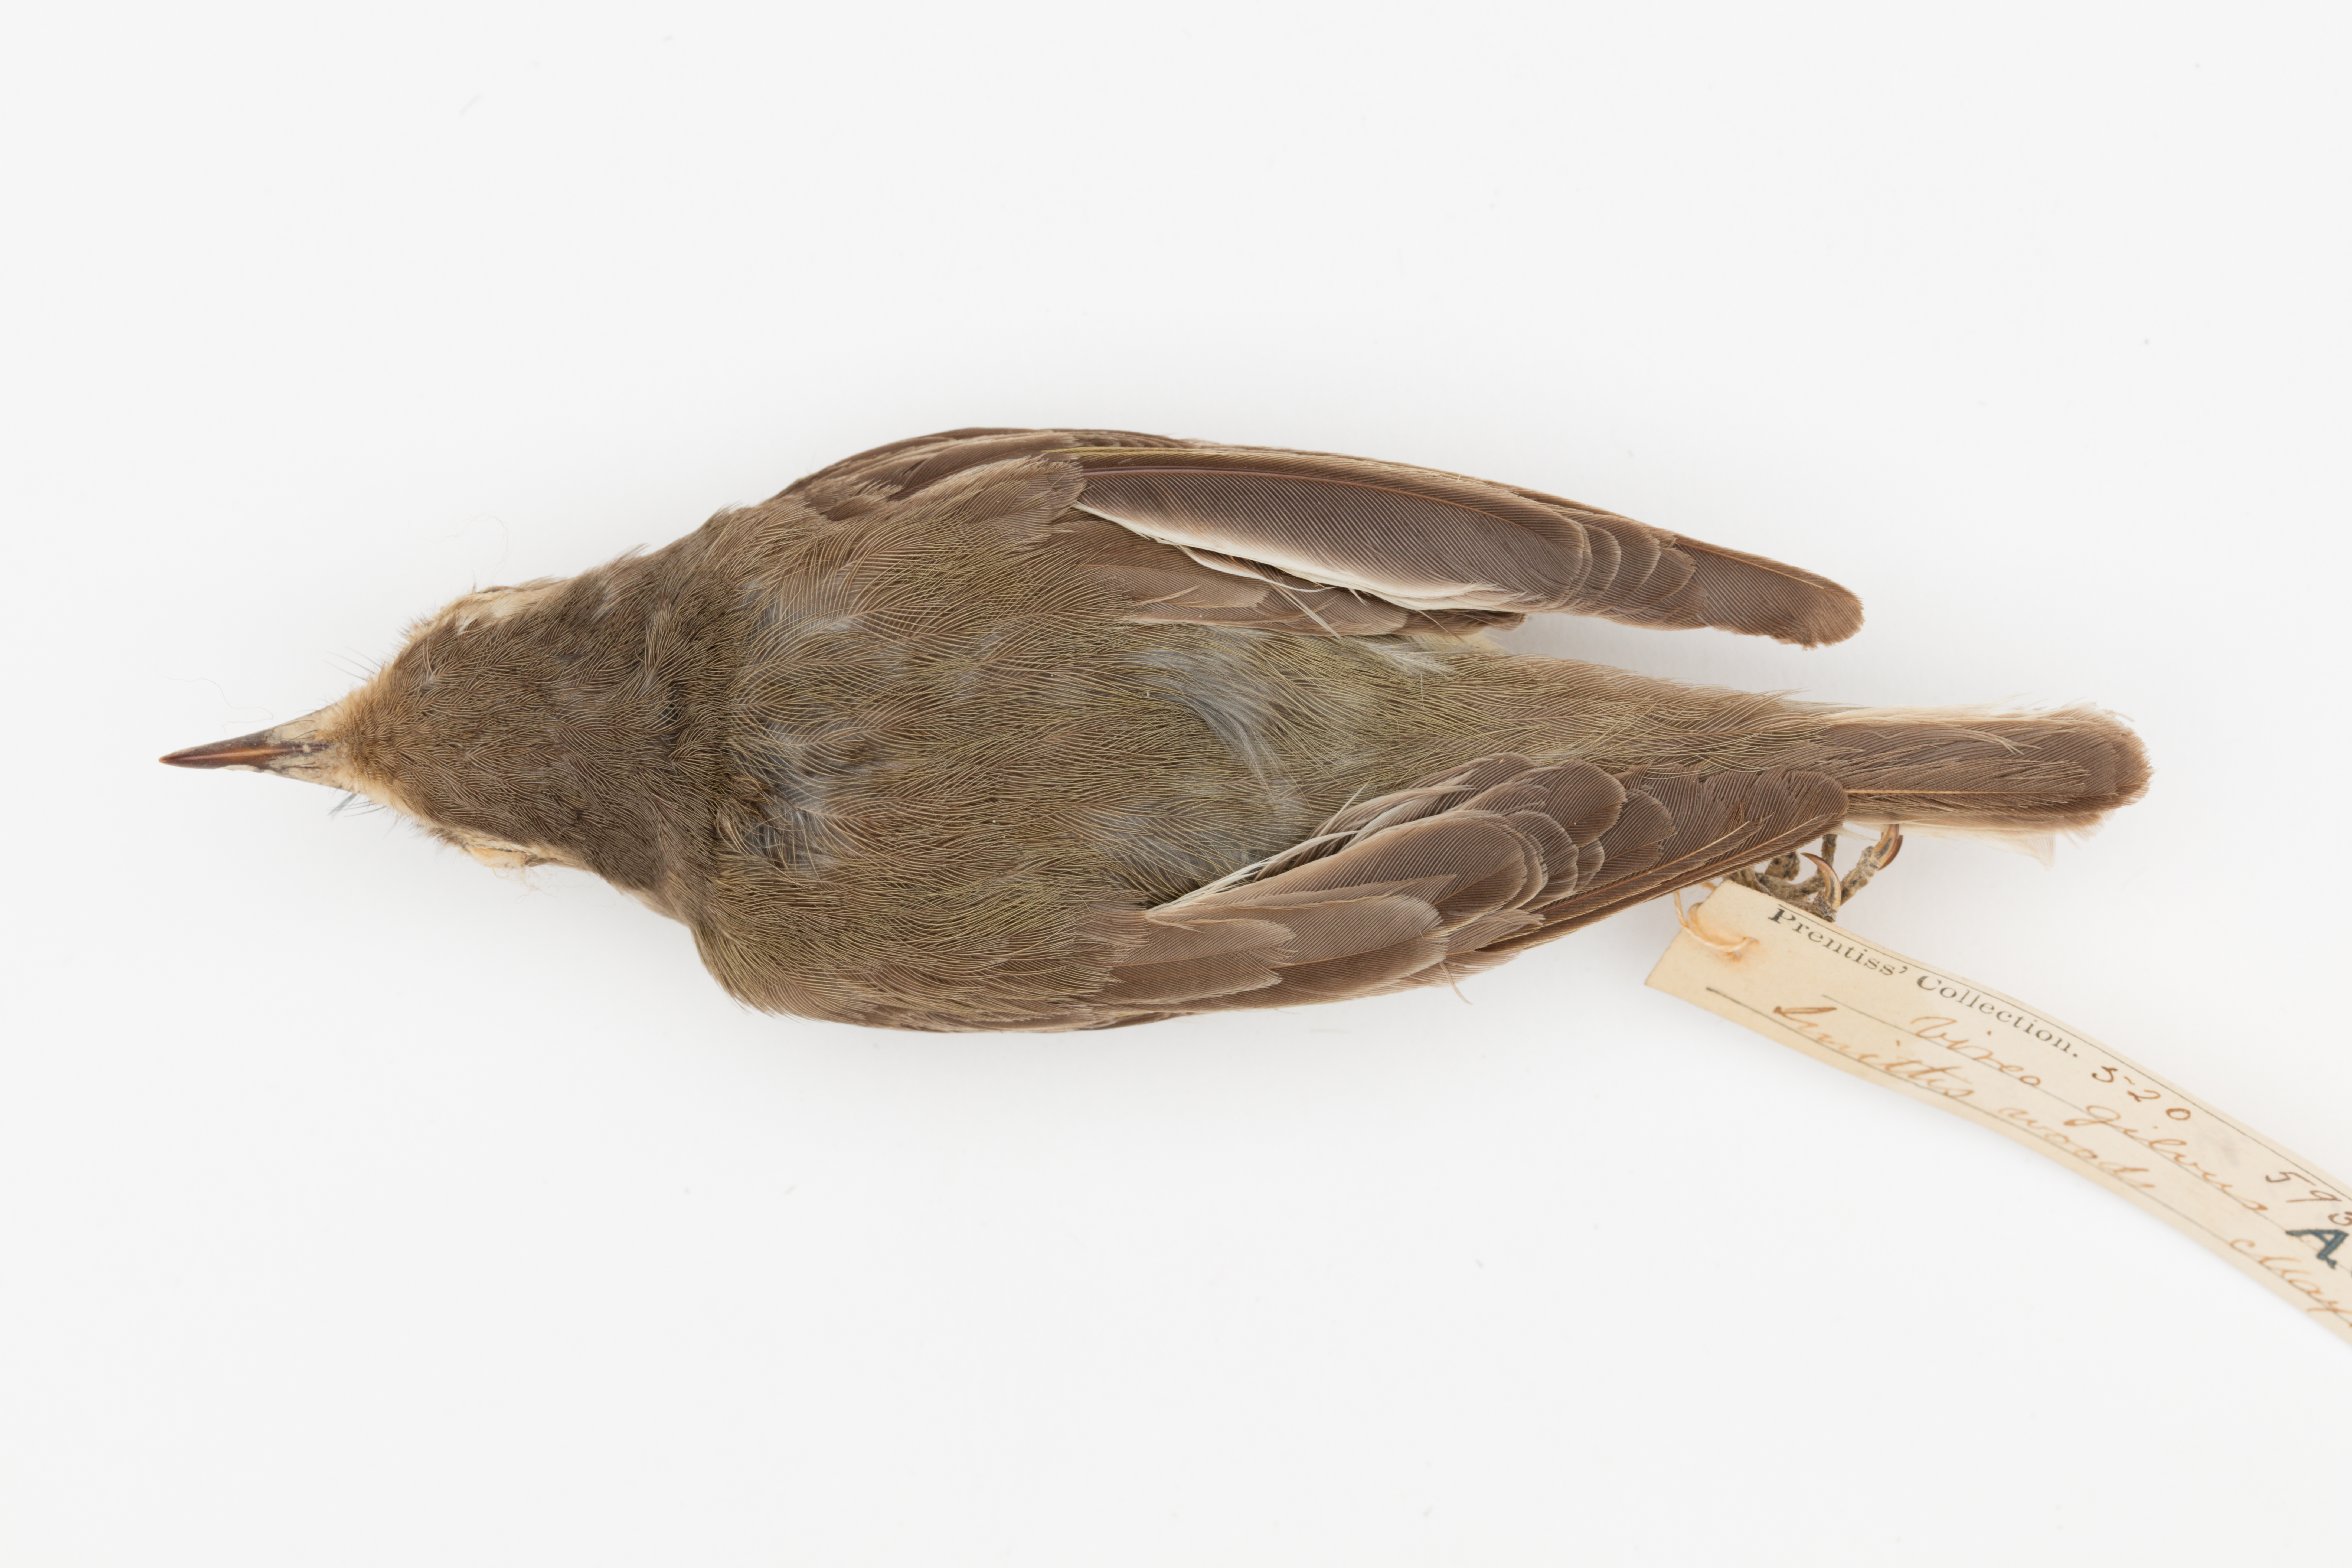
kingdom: Animalia
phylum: Chordata
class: Aves
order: Passeriformes
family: Vireonidae
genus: Vireo
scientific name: Vireo gilvus
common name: Warbling vireo
